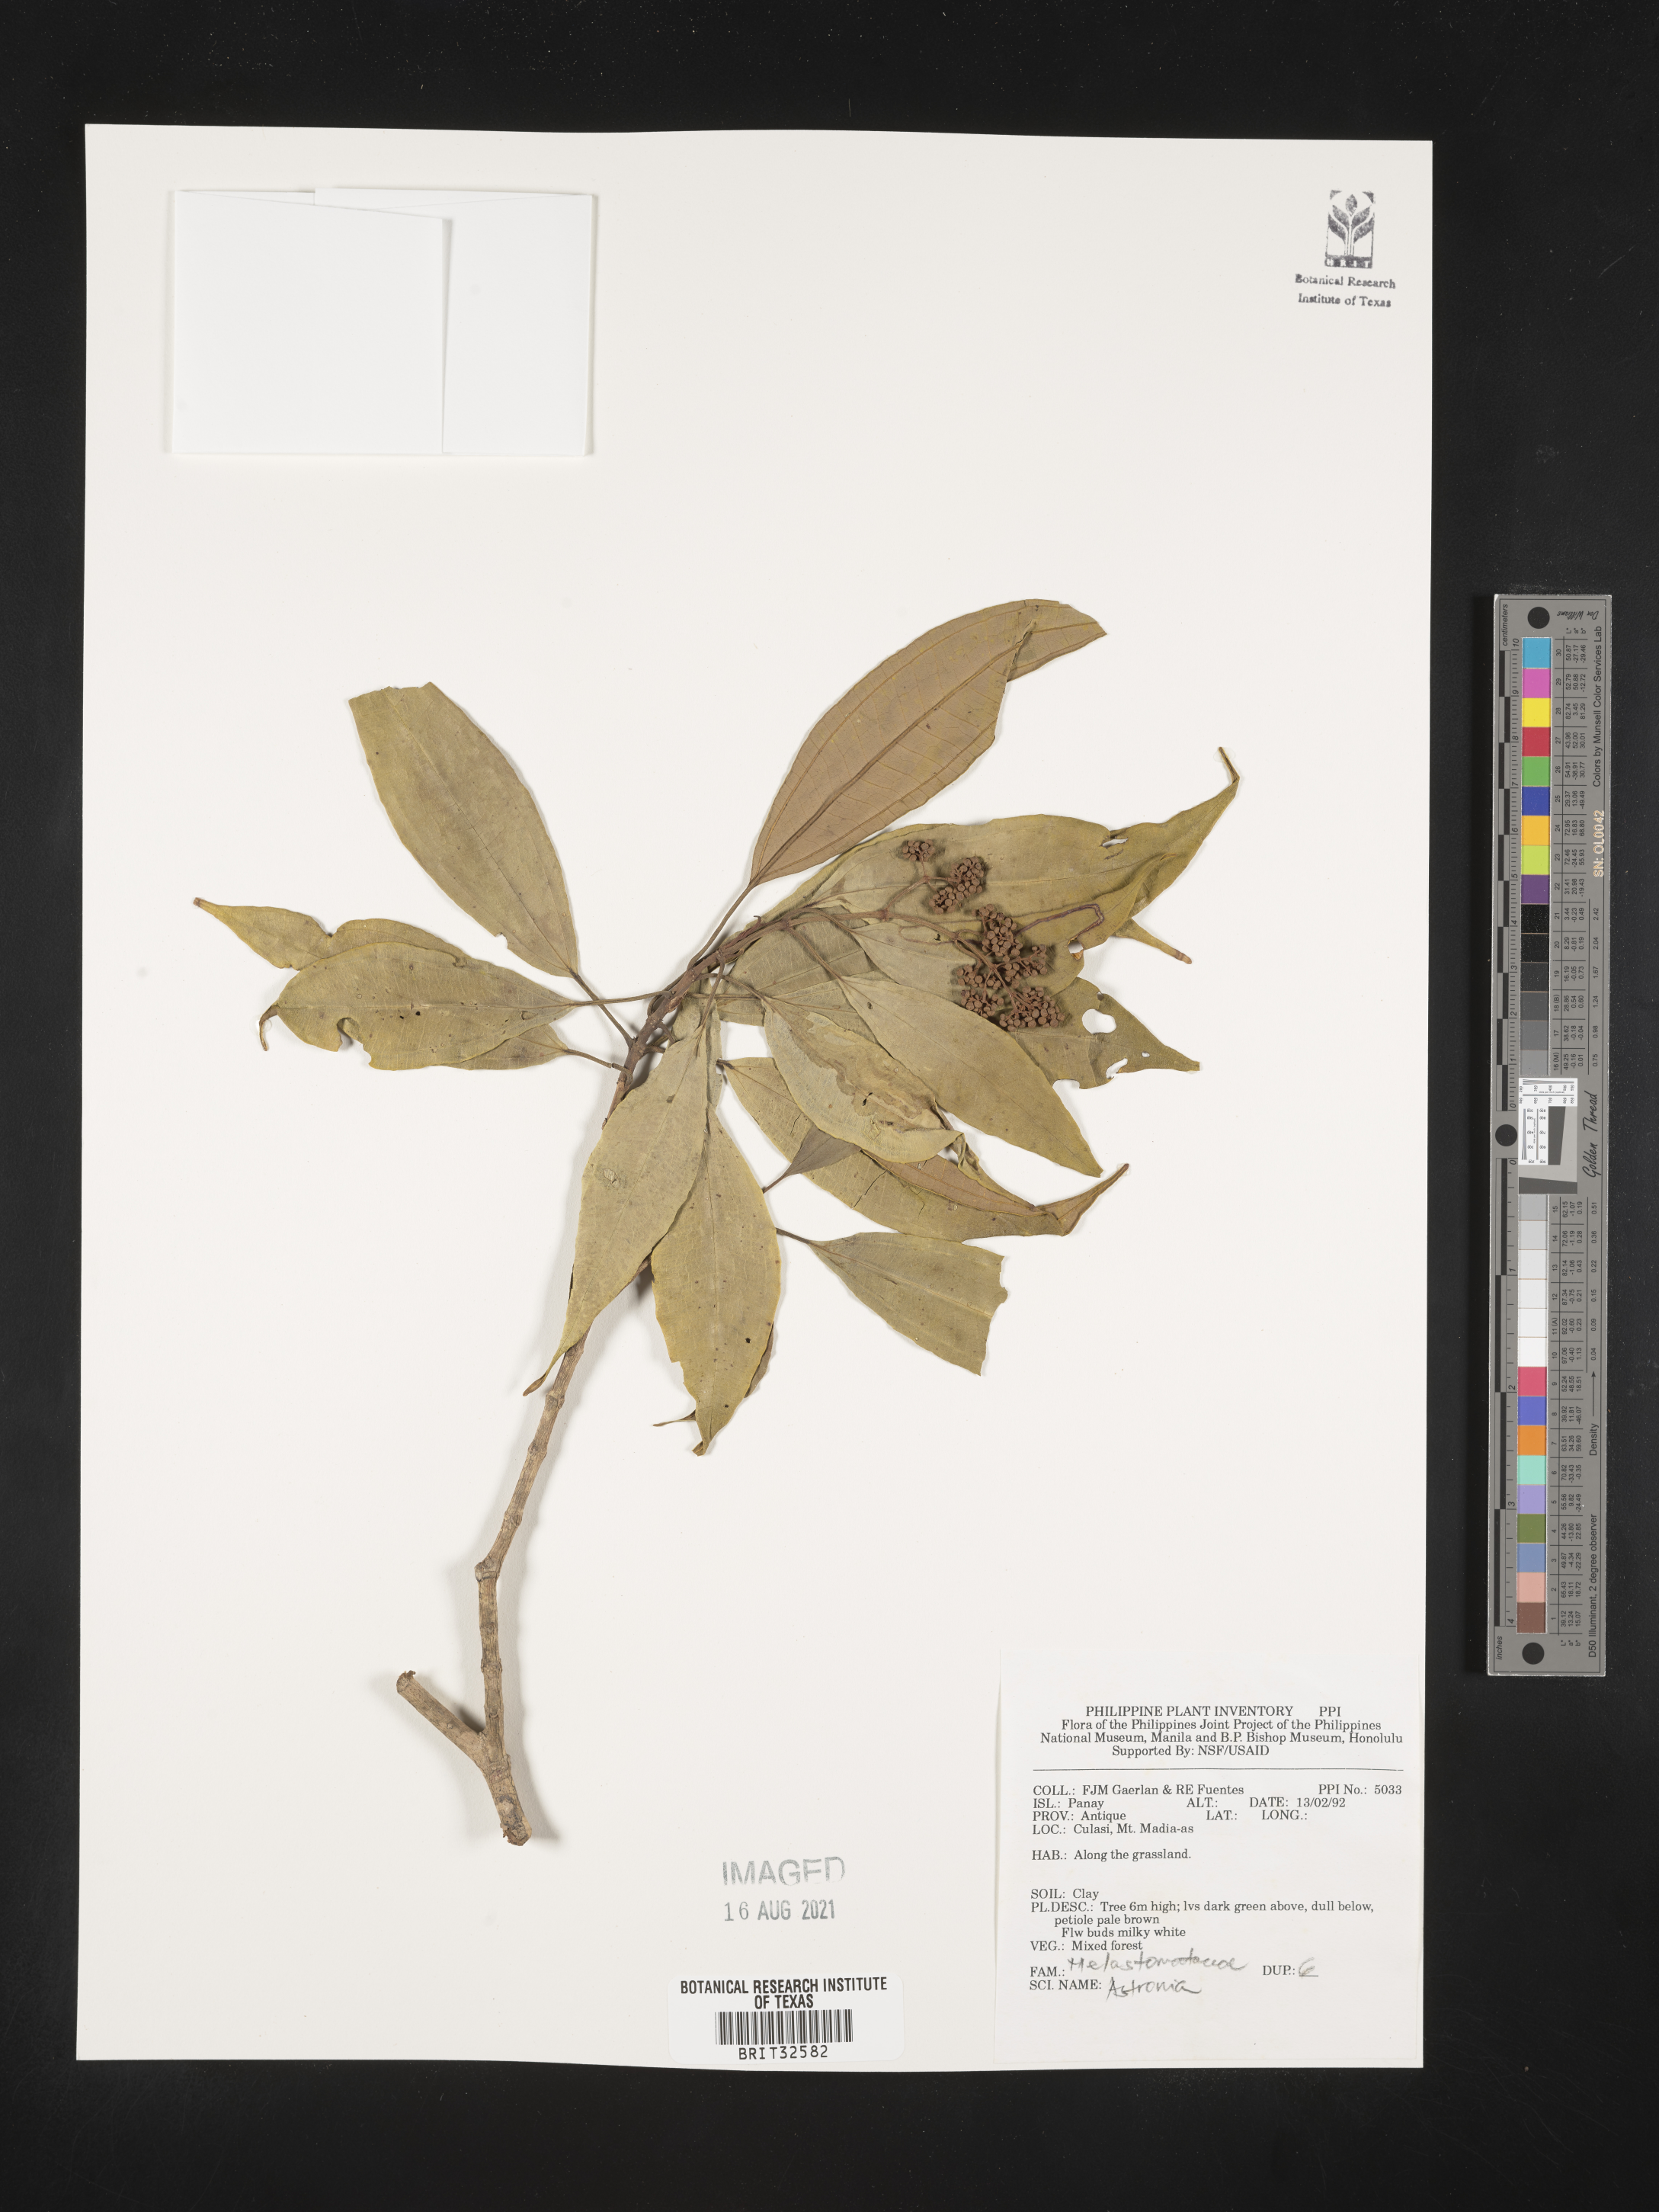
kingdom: Plantae
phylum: Tracheophyta
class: Magnoliopsida
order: Myrtales
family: Melastomataceae
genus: Astronia
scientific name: Astronia
